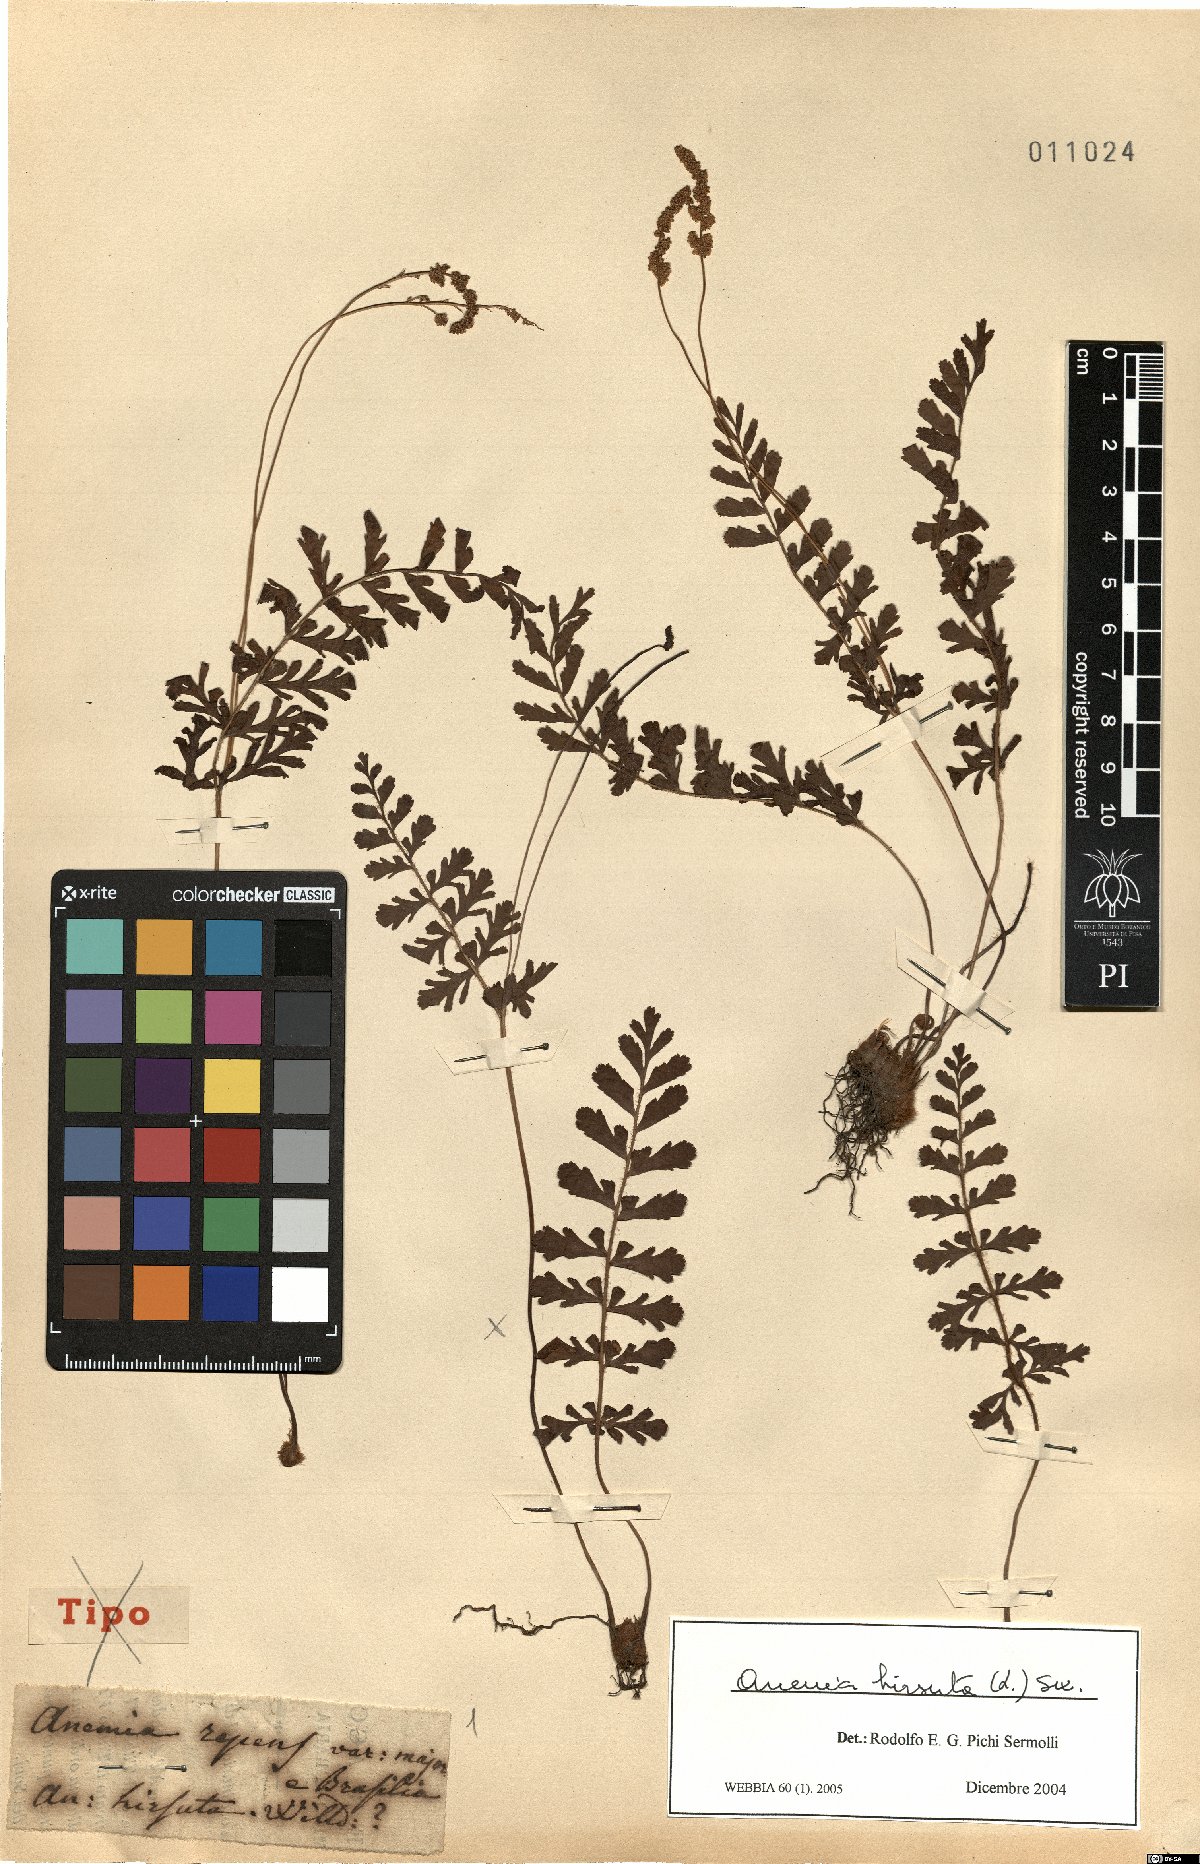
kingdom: Plantae
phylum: Tracheophyta
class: Polypodiopsida
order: Schizaeales
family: Anemiaceae
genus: Anemia
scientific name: Anemia hirsuta
